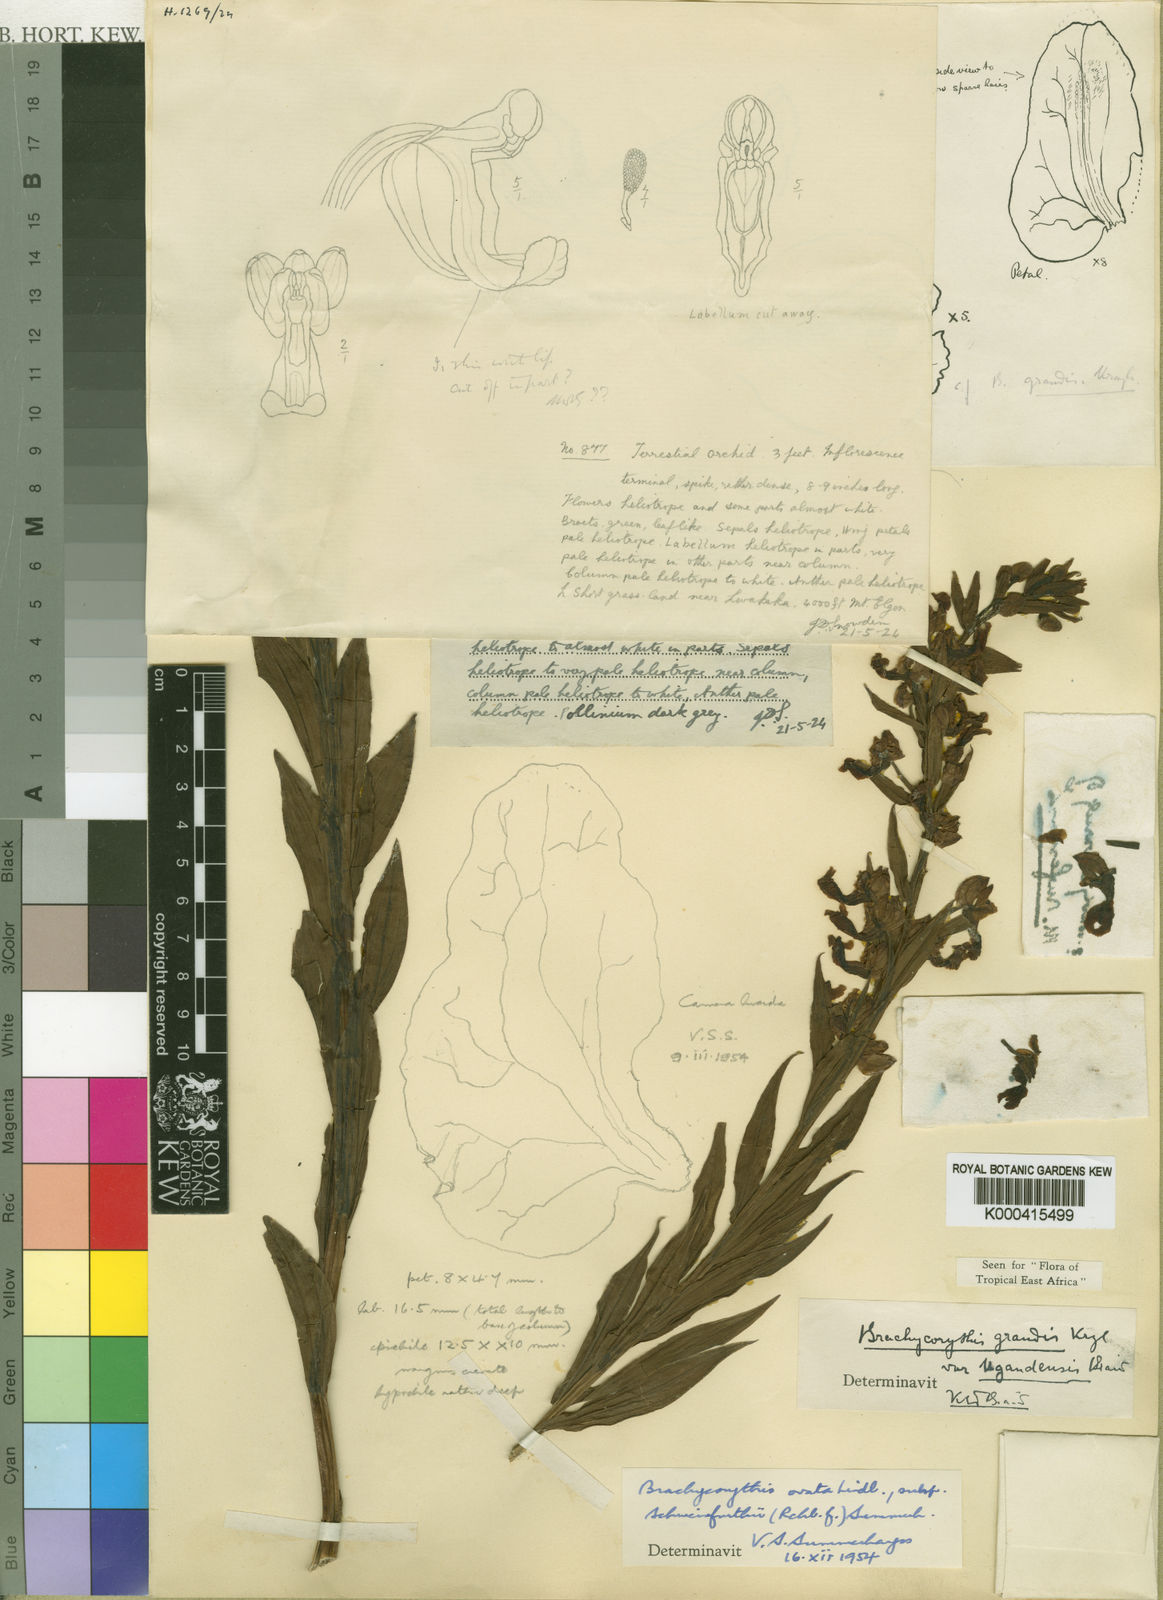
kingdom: Plantae
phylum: Tracheophyta
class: Liliopsida
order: Asparagales
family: Orchidaceae
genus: Brachycorythis
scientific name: Brachycorythis ovata
